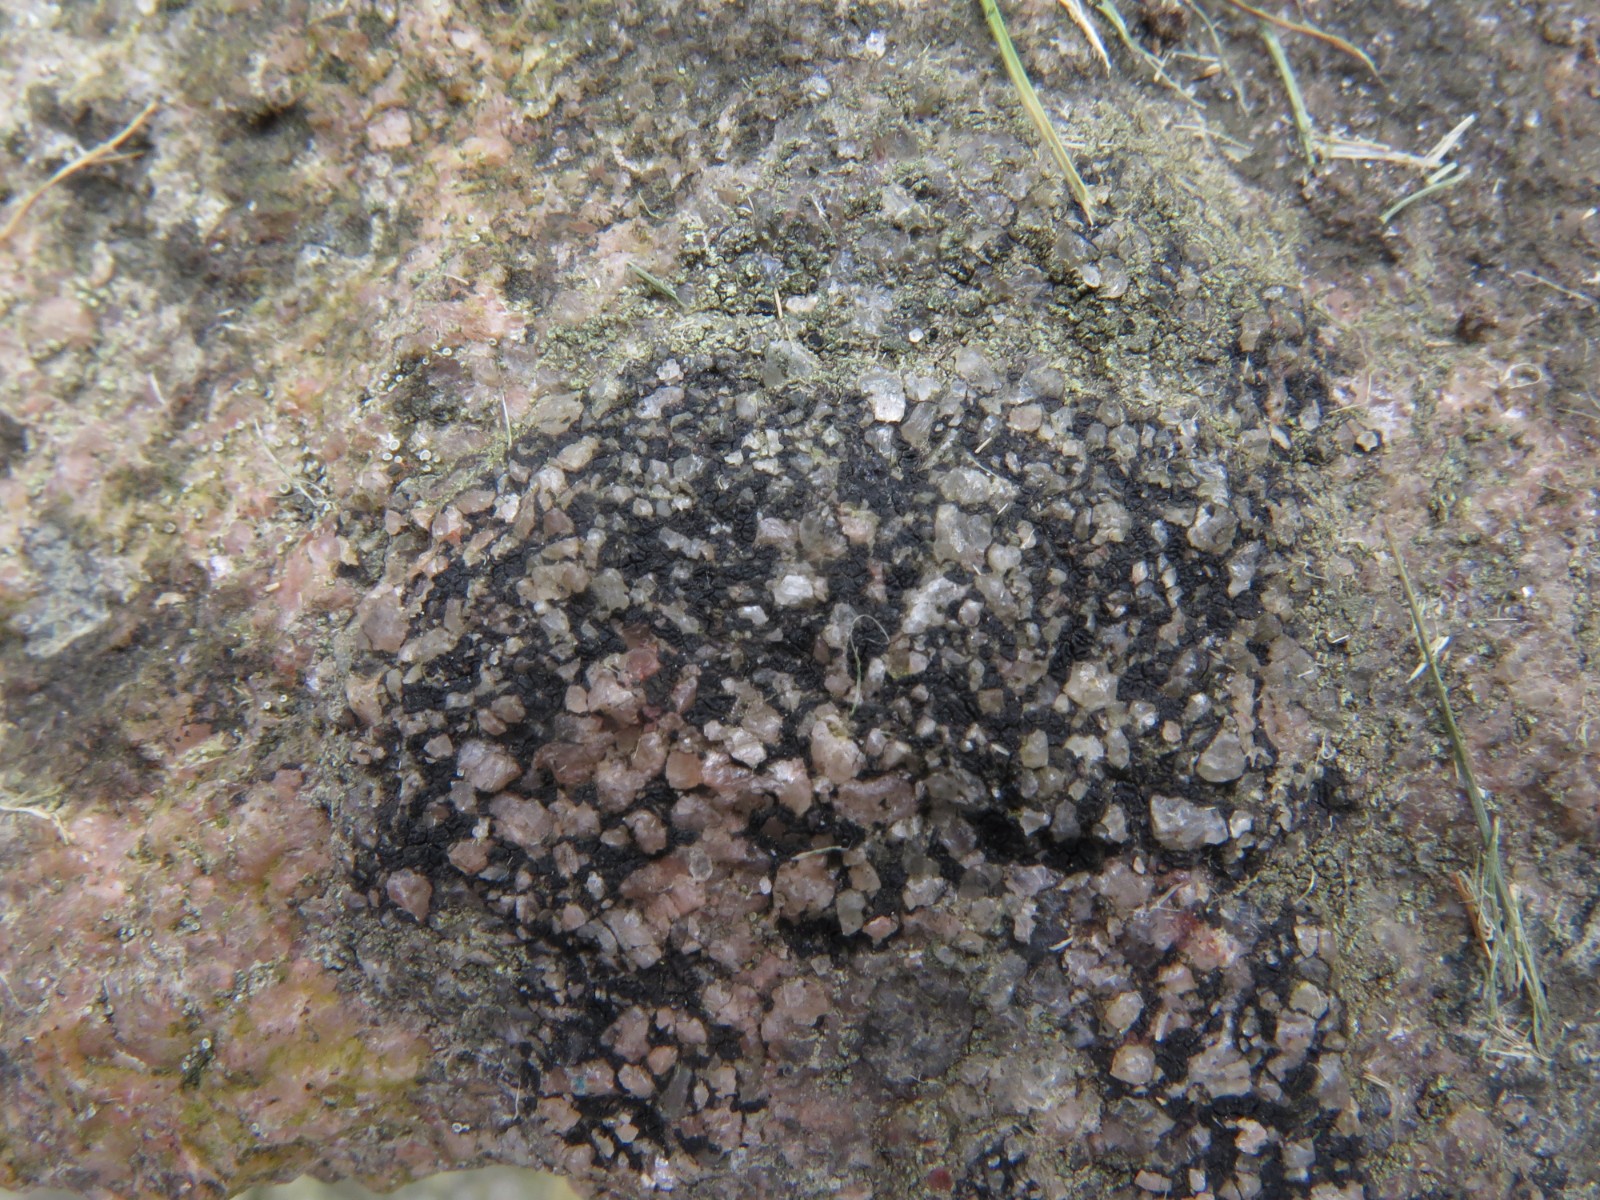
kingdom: Fungi
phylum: Ascomycota
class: Lecanoromycetes
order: Acarosporales
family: Acarosporaceae
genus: Acarospora
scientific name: Acarospora privigna
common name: sort foldekantlav
